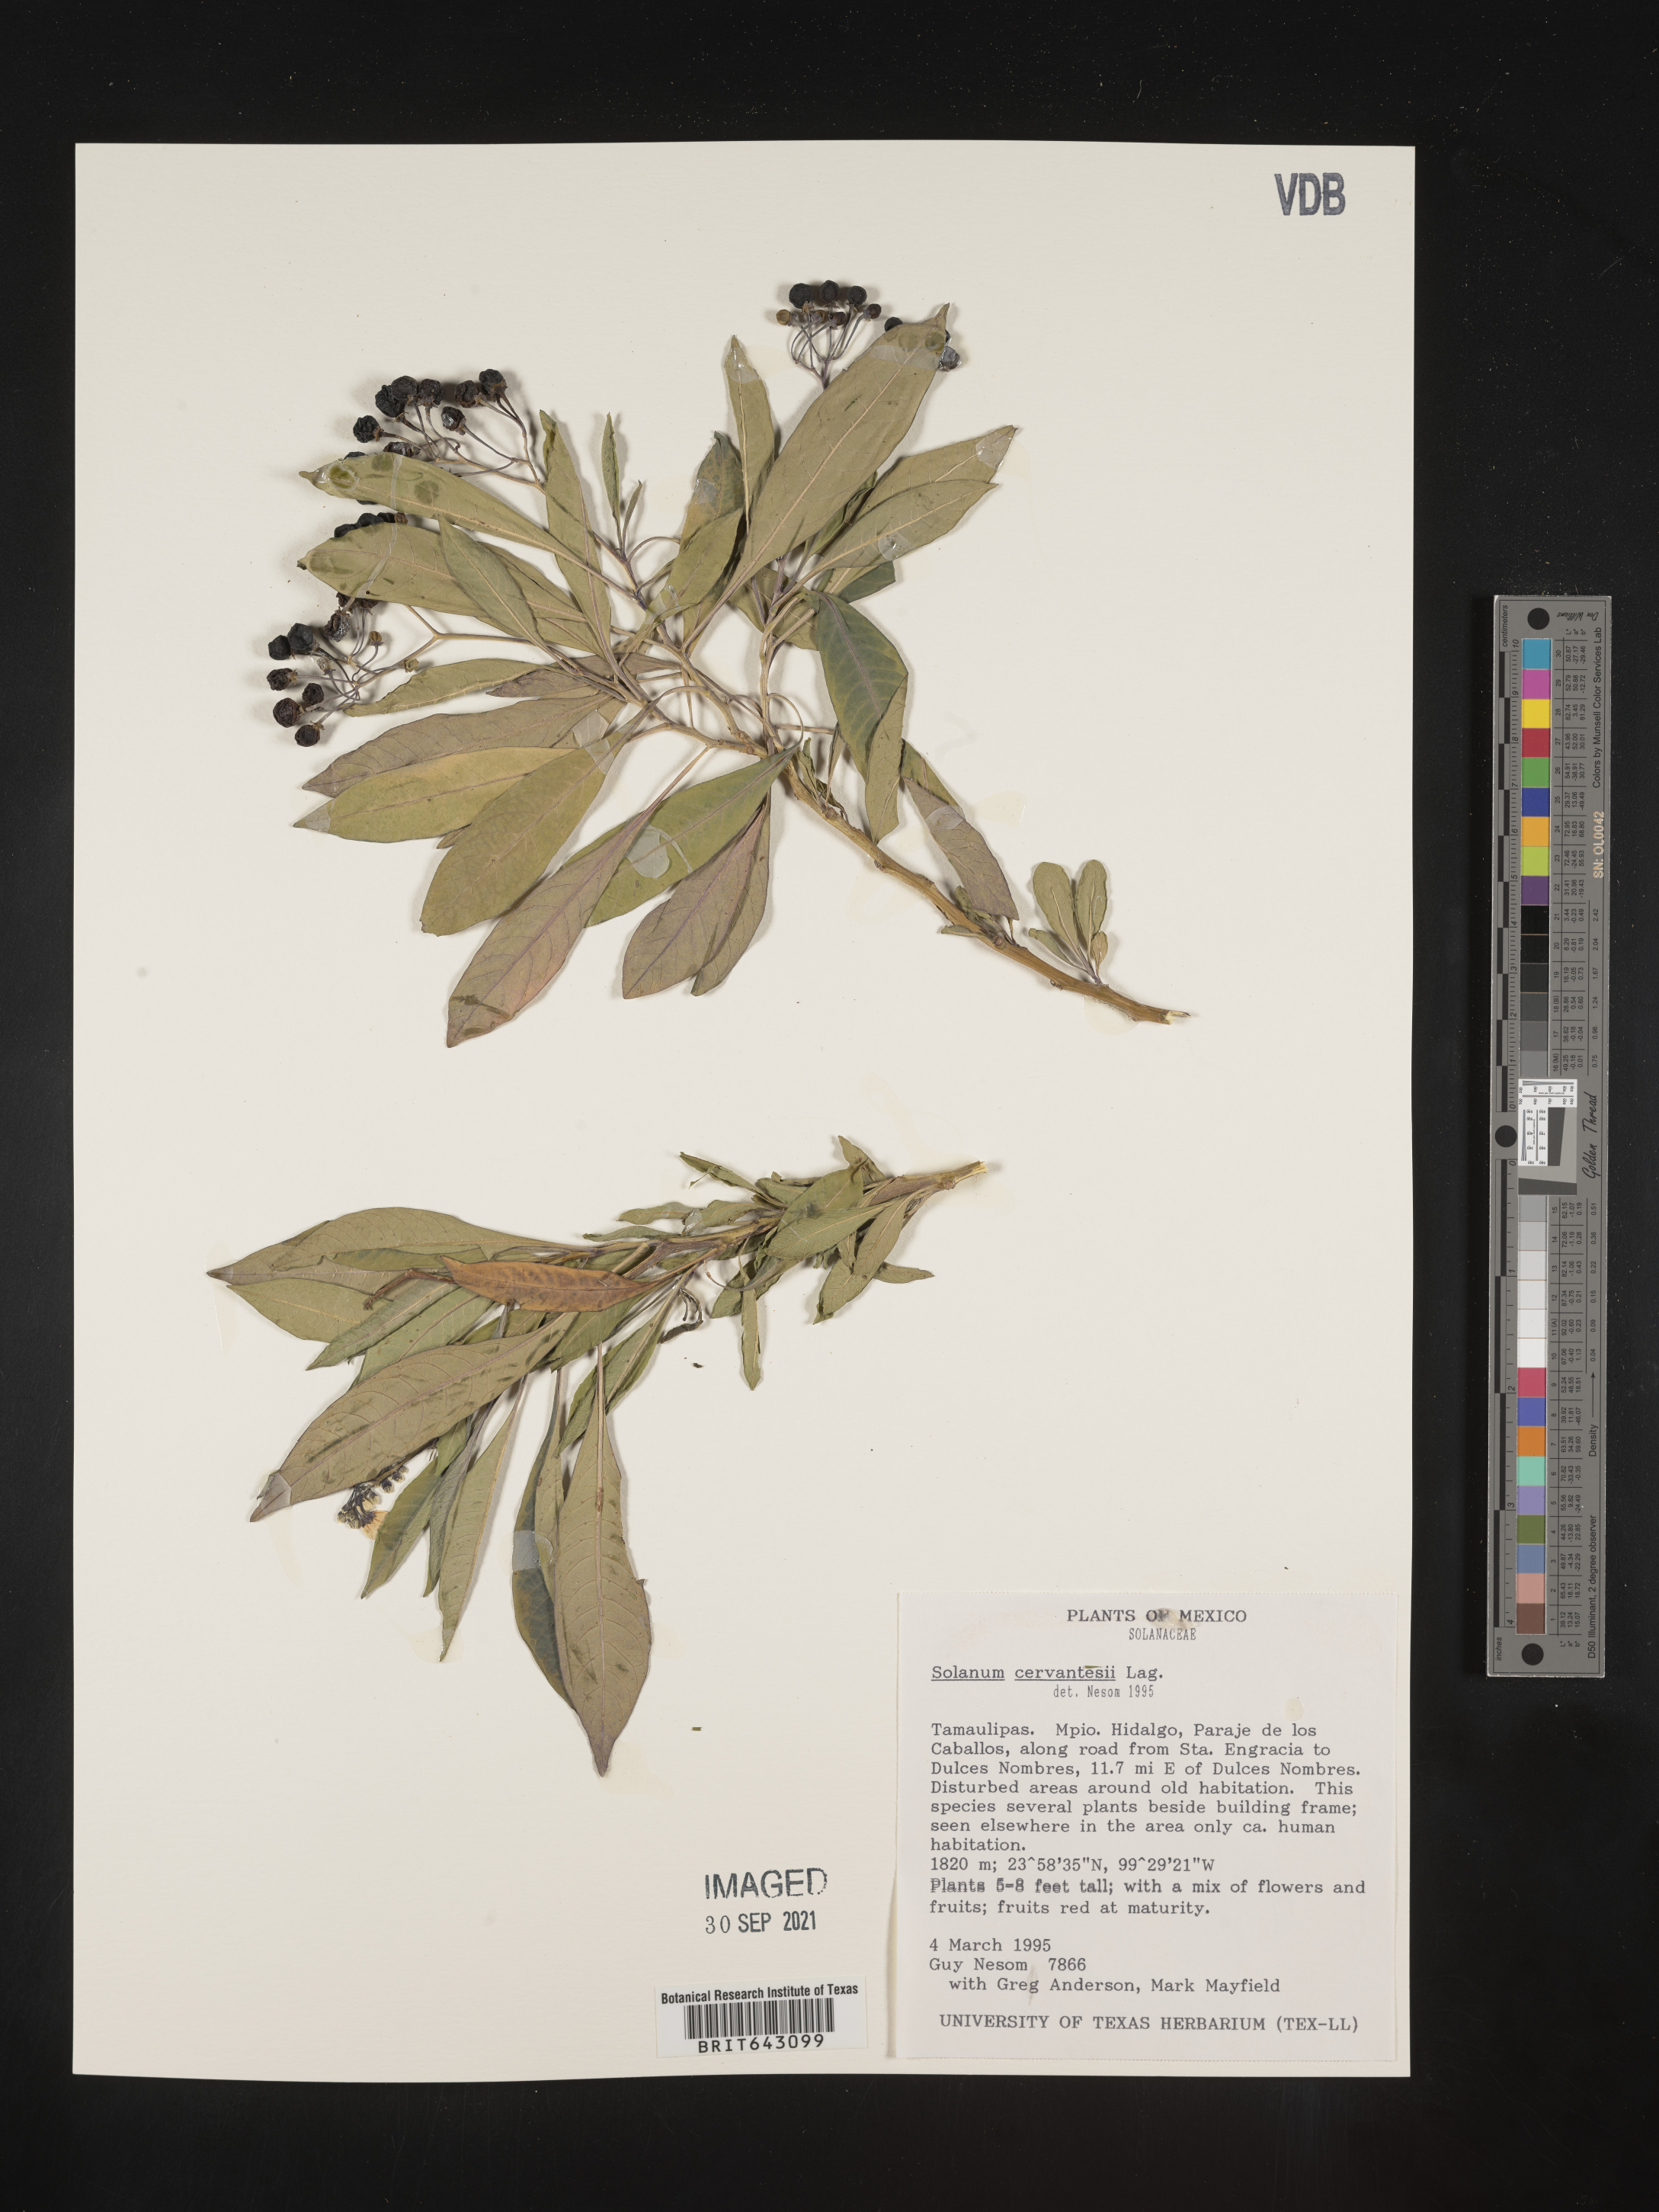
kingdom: Plantae
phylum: Tracheophyta
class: Magnoliopsida
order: Solanales
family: Solanaceae
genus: Solanum
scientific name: Solanum
